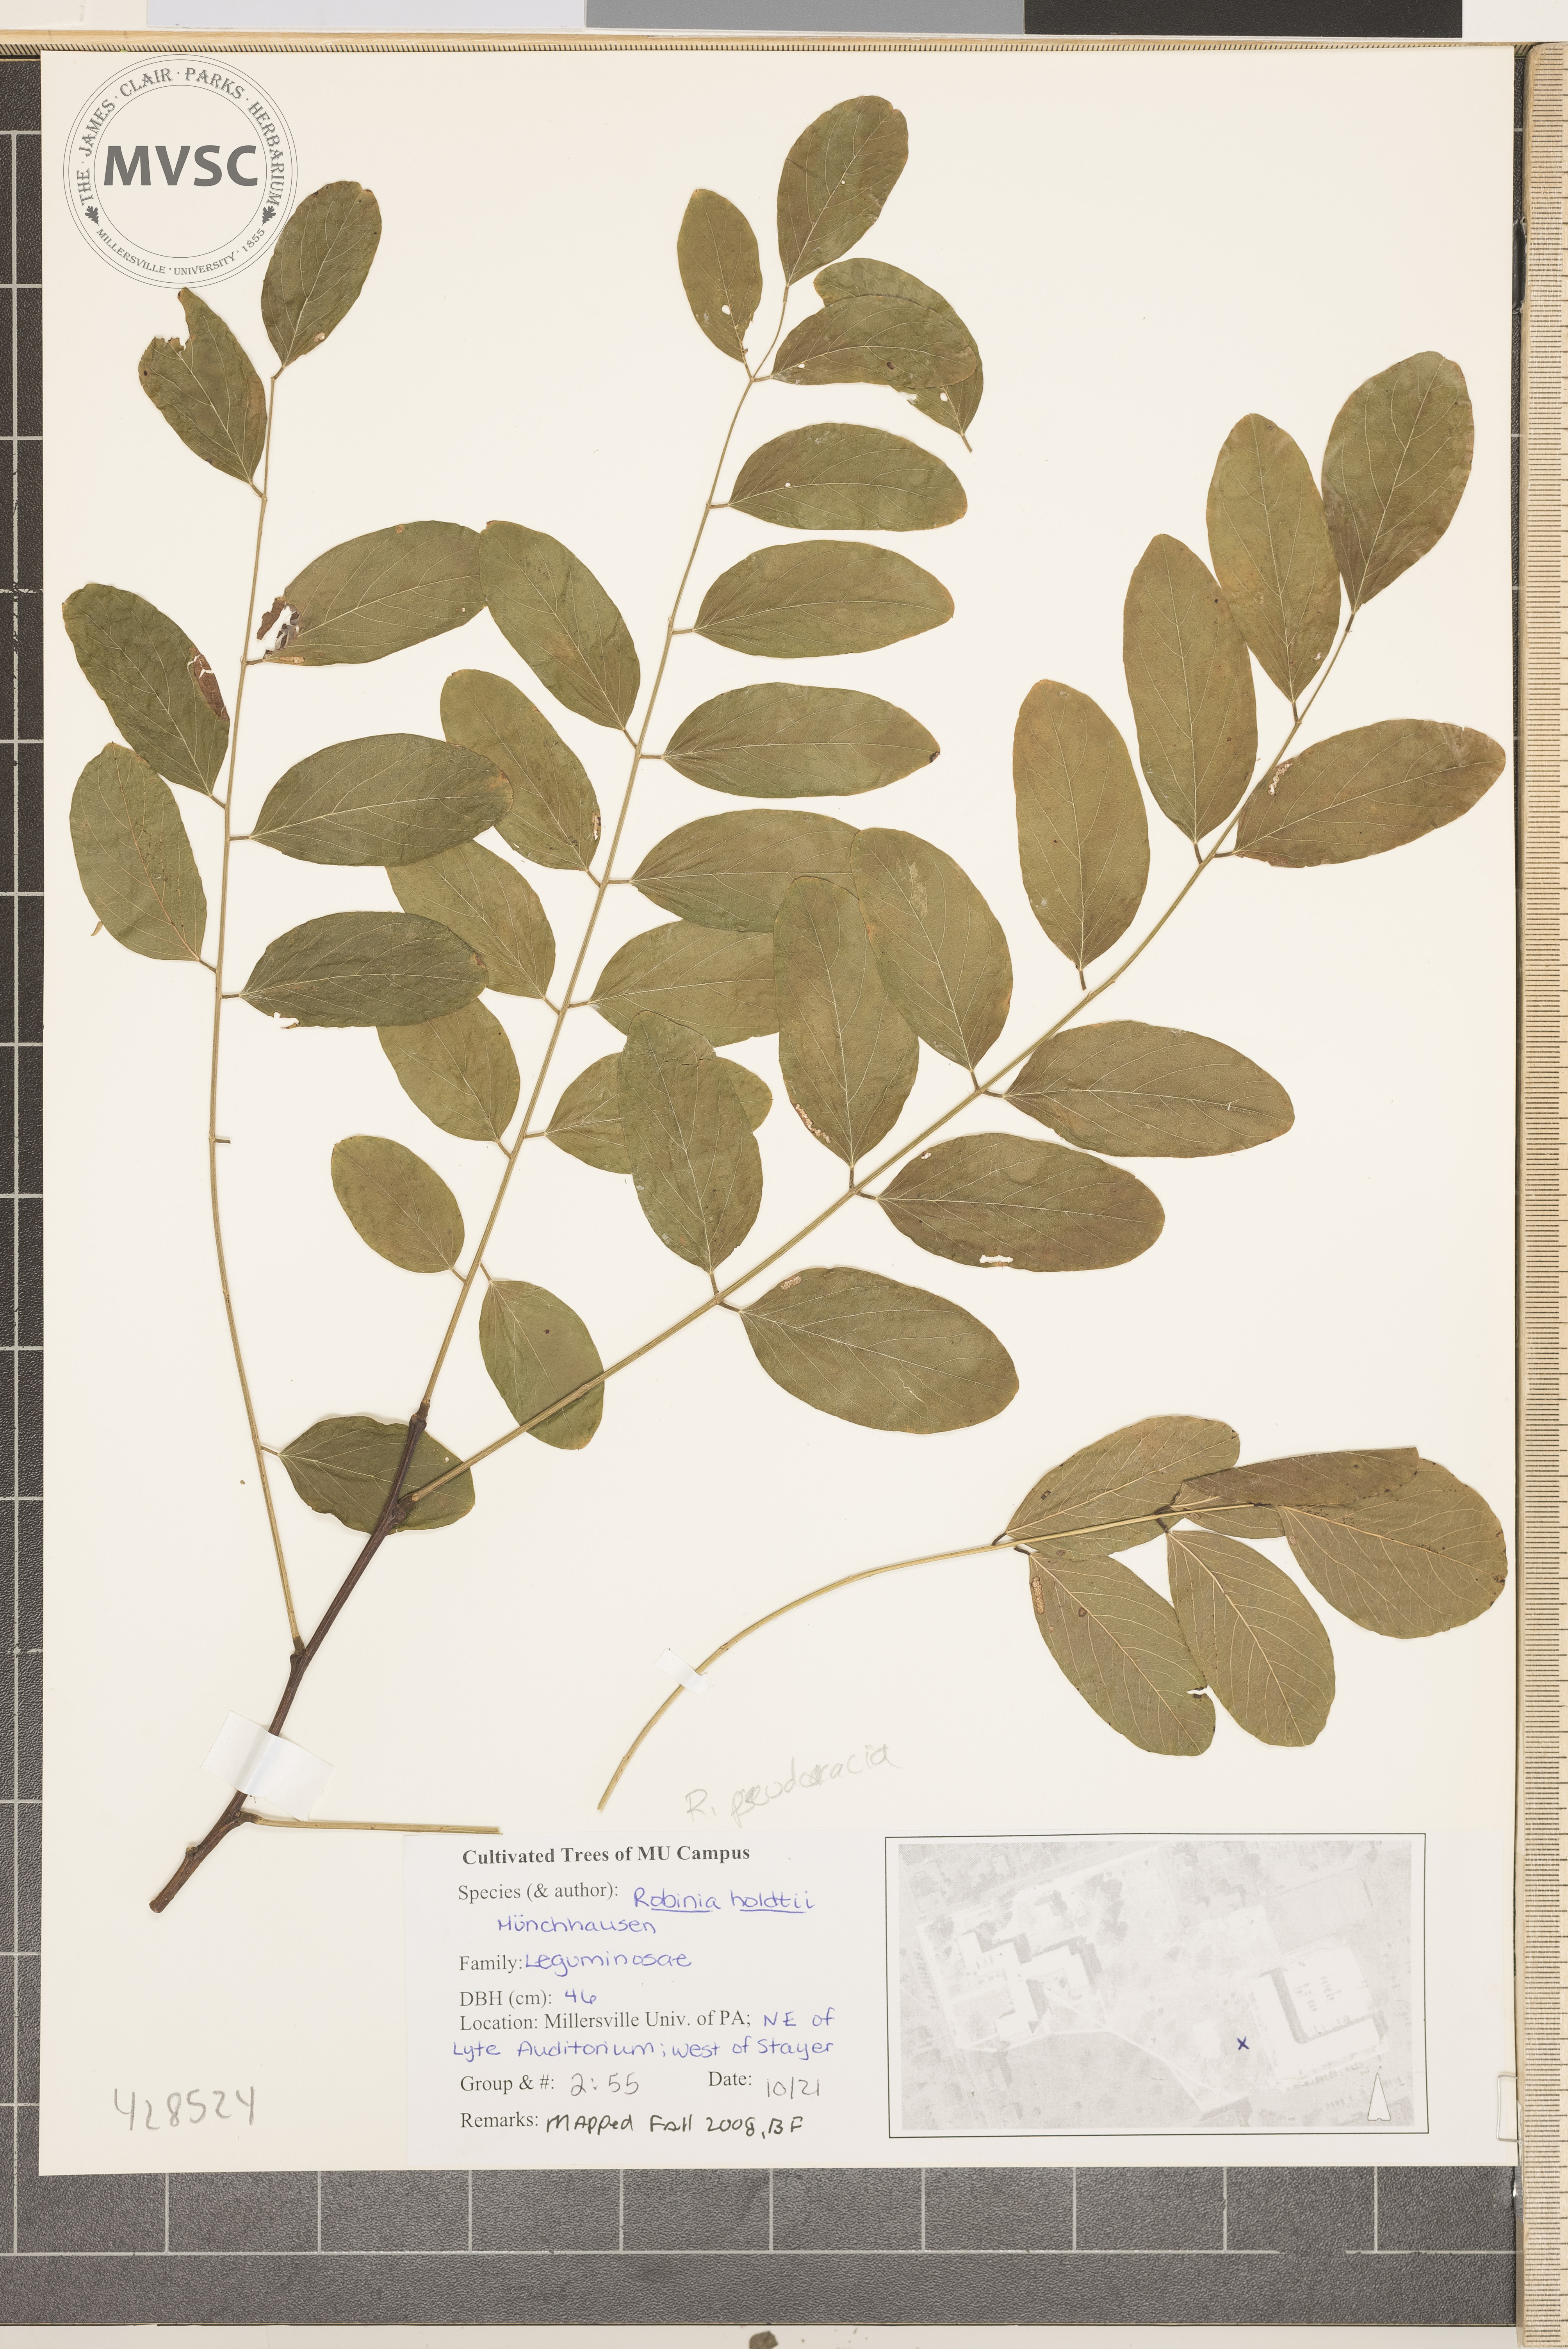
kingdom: Plantae
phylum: Tracheophyta
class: Magnoliopsida
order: Fabales
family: Fabaceae
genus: Robinia
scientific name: Robinia pseudoacacia
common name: Black locust
